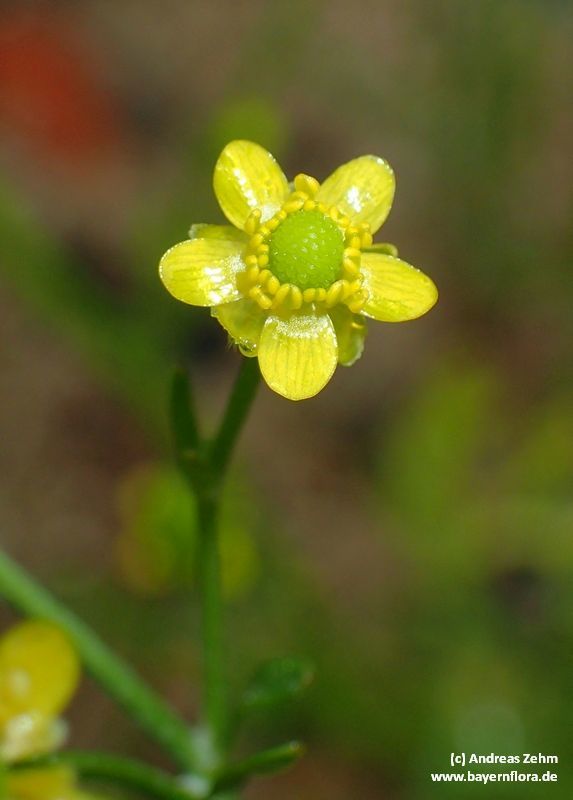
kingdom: Plantae
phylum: Tracheophyta
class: Magnoliopsida
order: Ranunculales
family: Ranunculaceae
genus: Ranunculus
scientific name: Ranunculus sceleratus
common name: Celery-leaved buttercup
